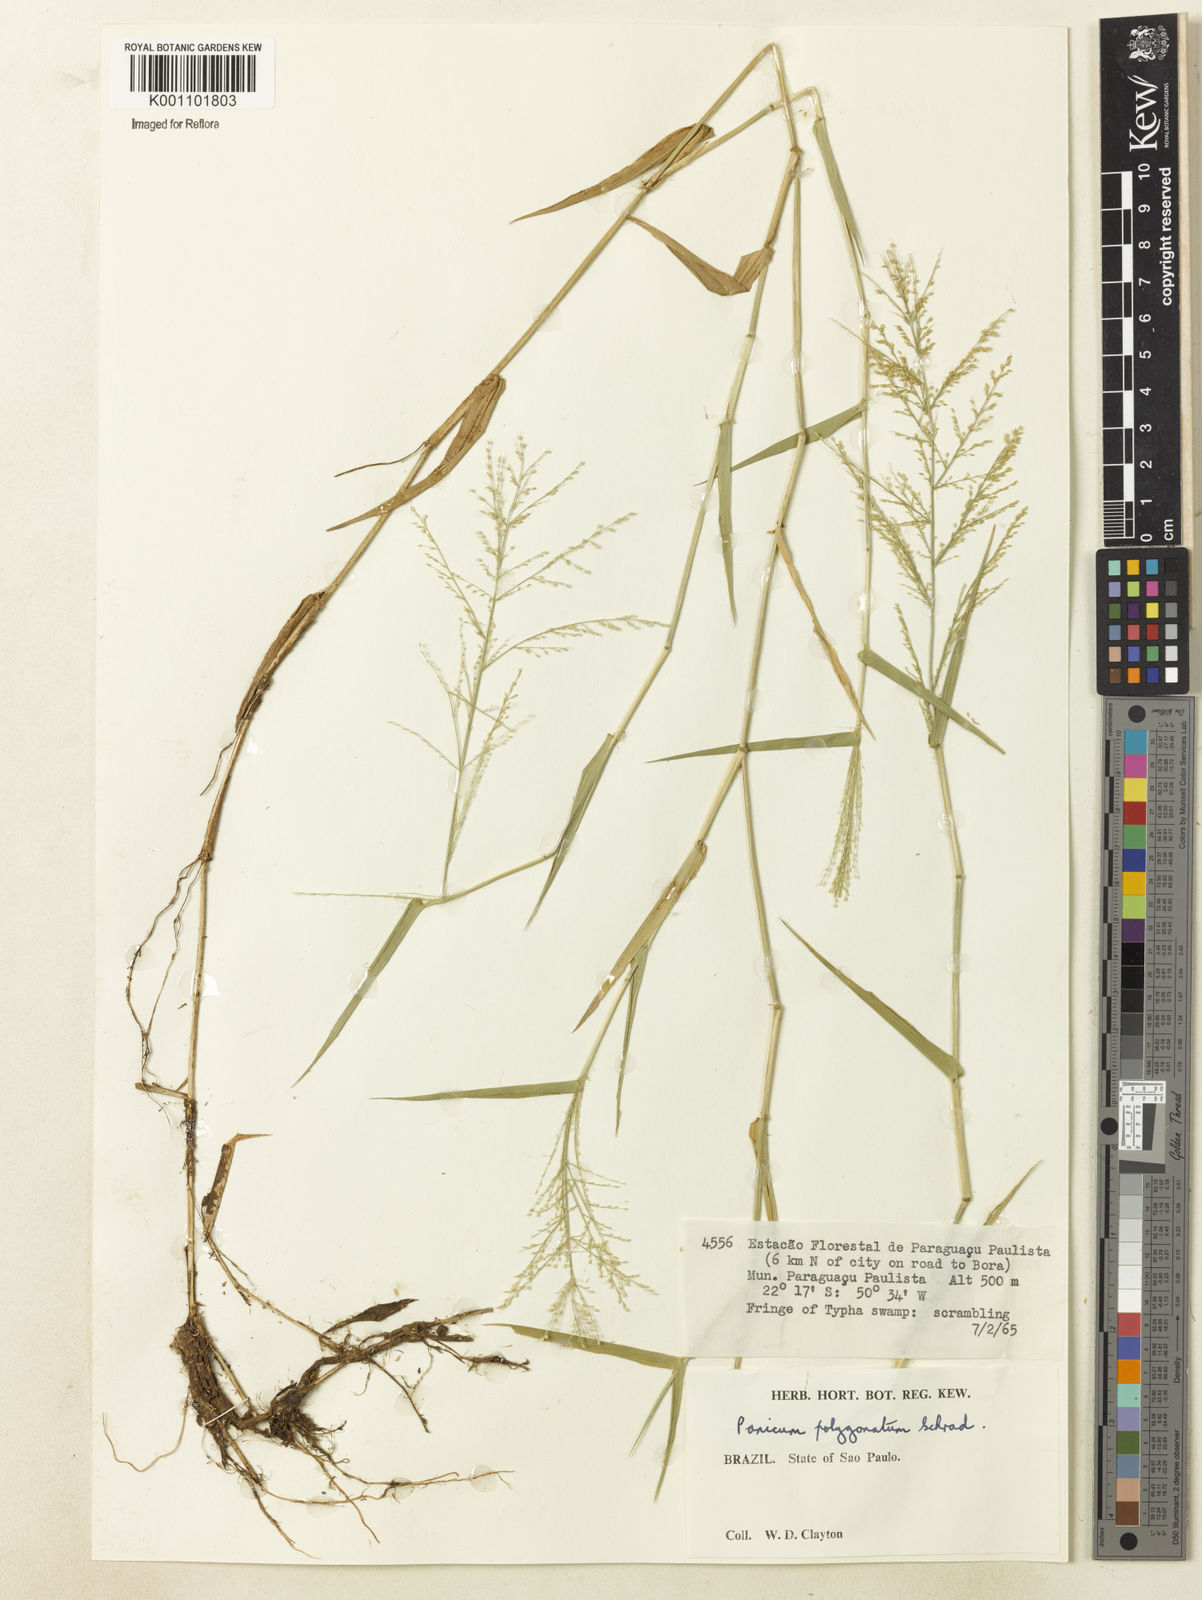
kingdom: Plantae
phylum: Tracheophyta
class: Liliopsida
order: Poales
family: Poaceae
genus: Rugoloa
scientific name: Rugoloa polygonata
